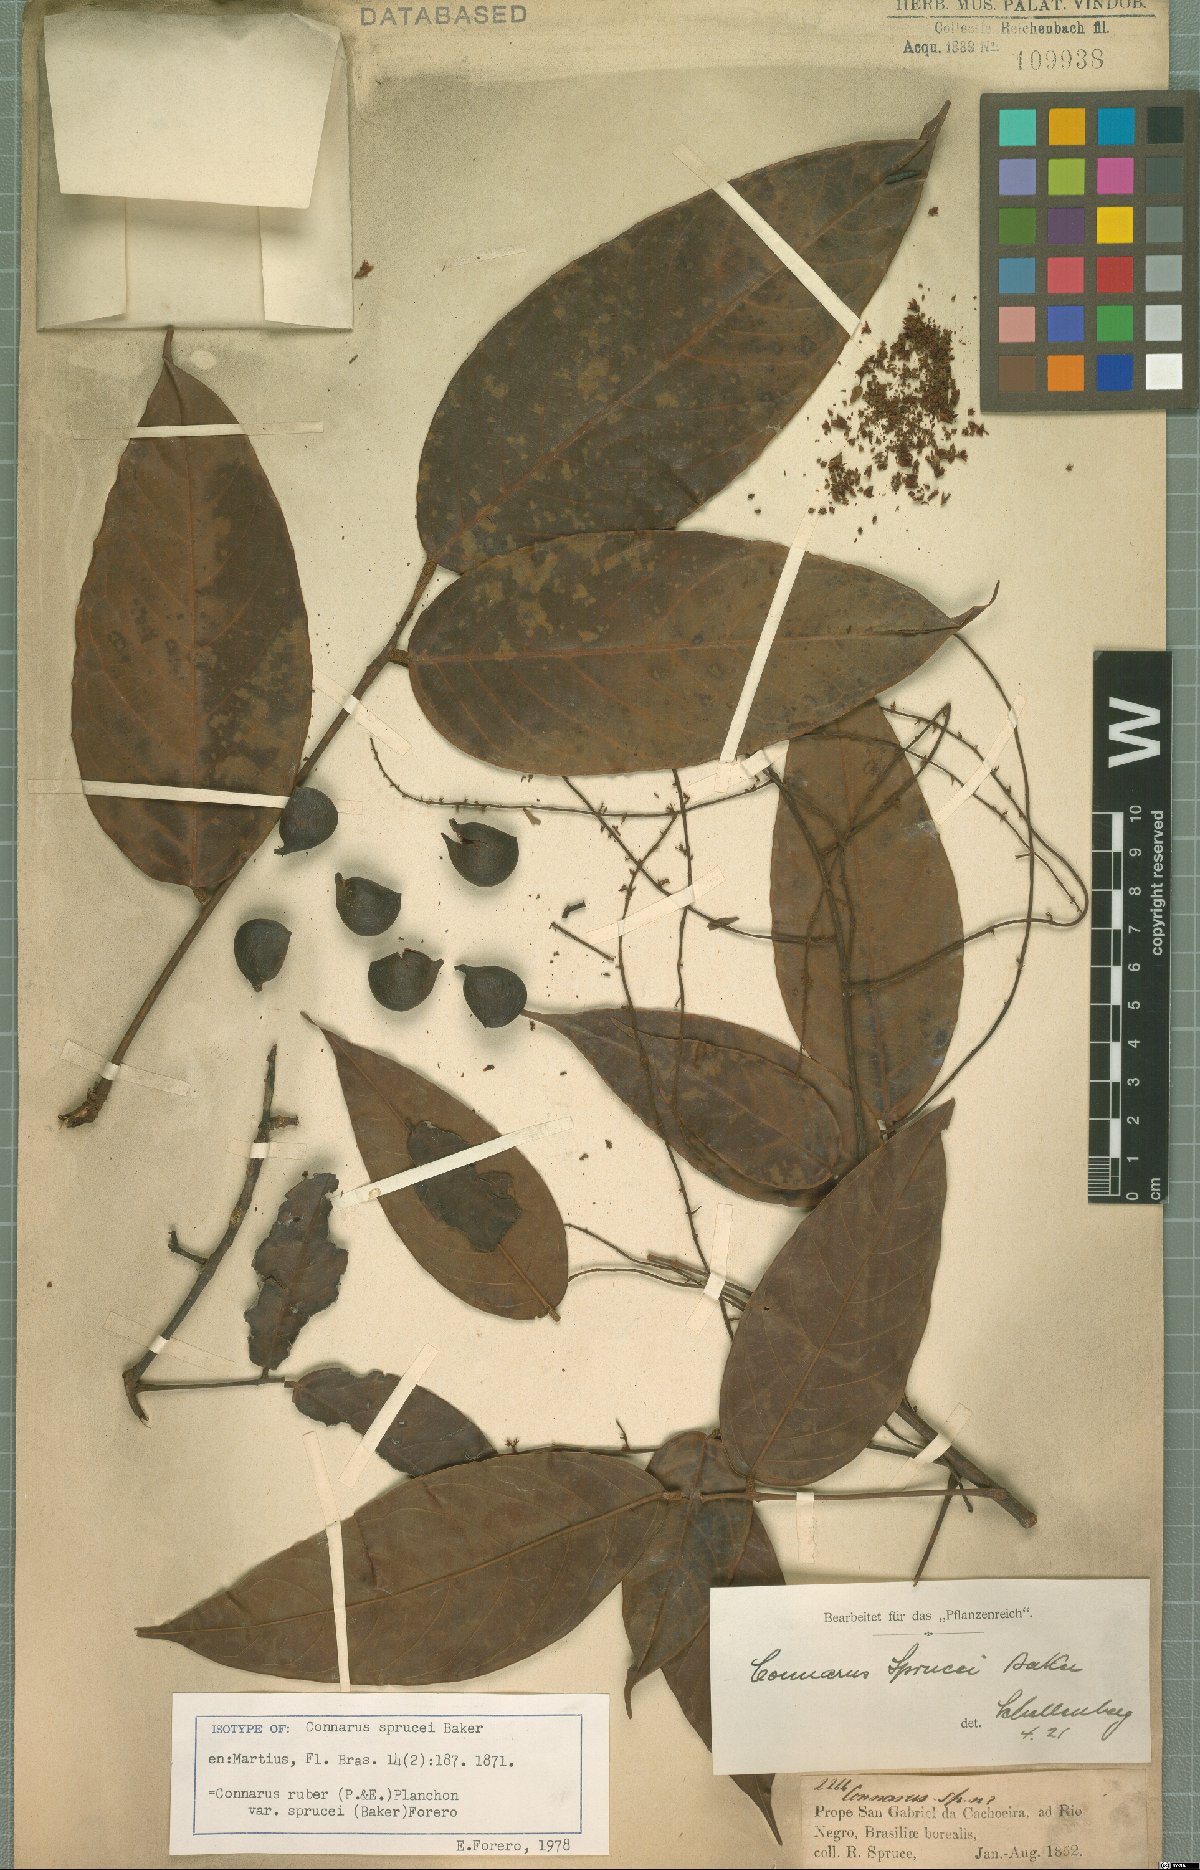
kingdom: Plantae
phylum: Tracheophyta
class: Magnoliopsida
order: Oxalidales
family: Connaraceae
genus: Connarus
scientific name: Connarus ruber
